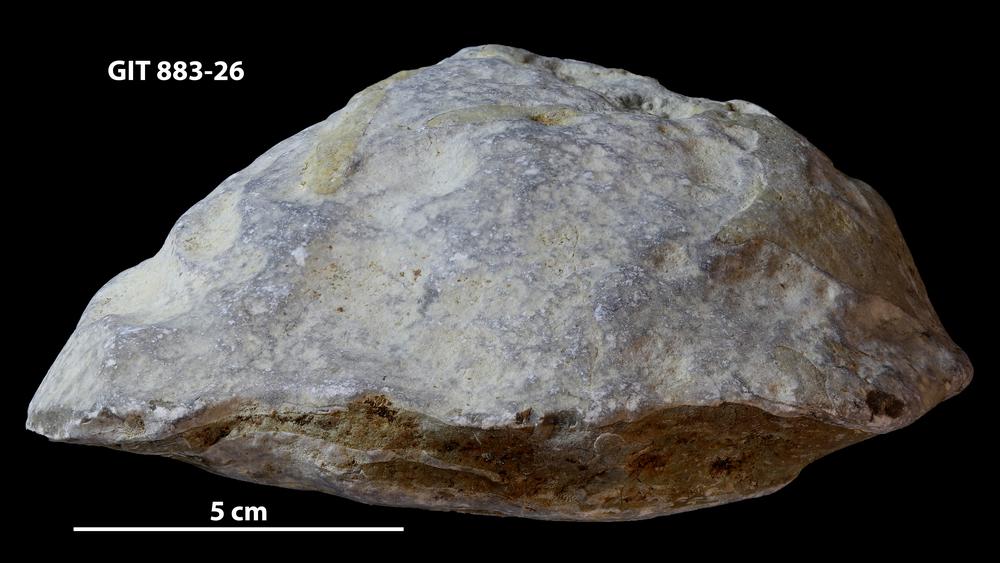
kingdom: Animalia
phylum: Porifera
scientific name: Porifera
